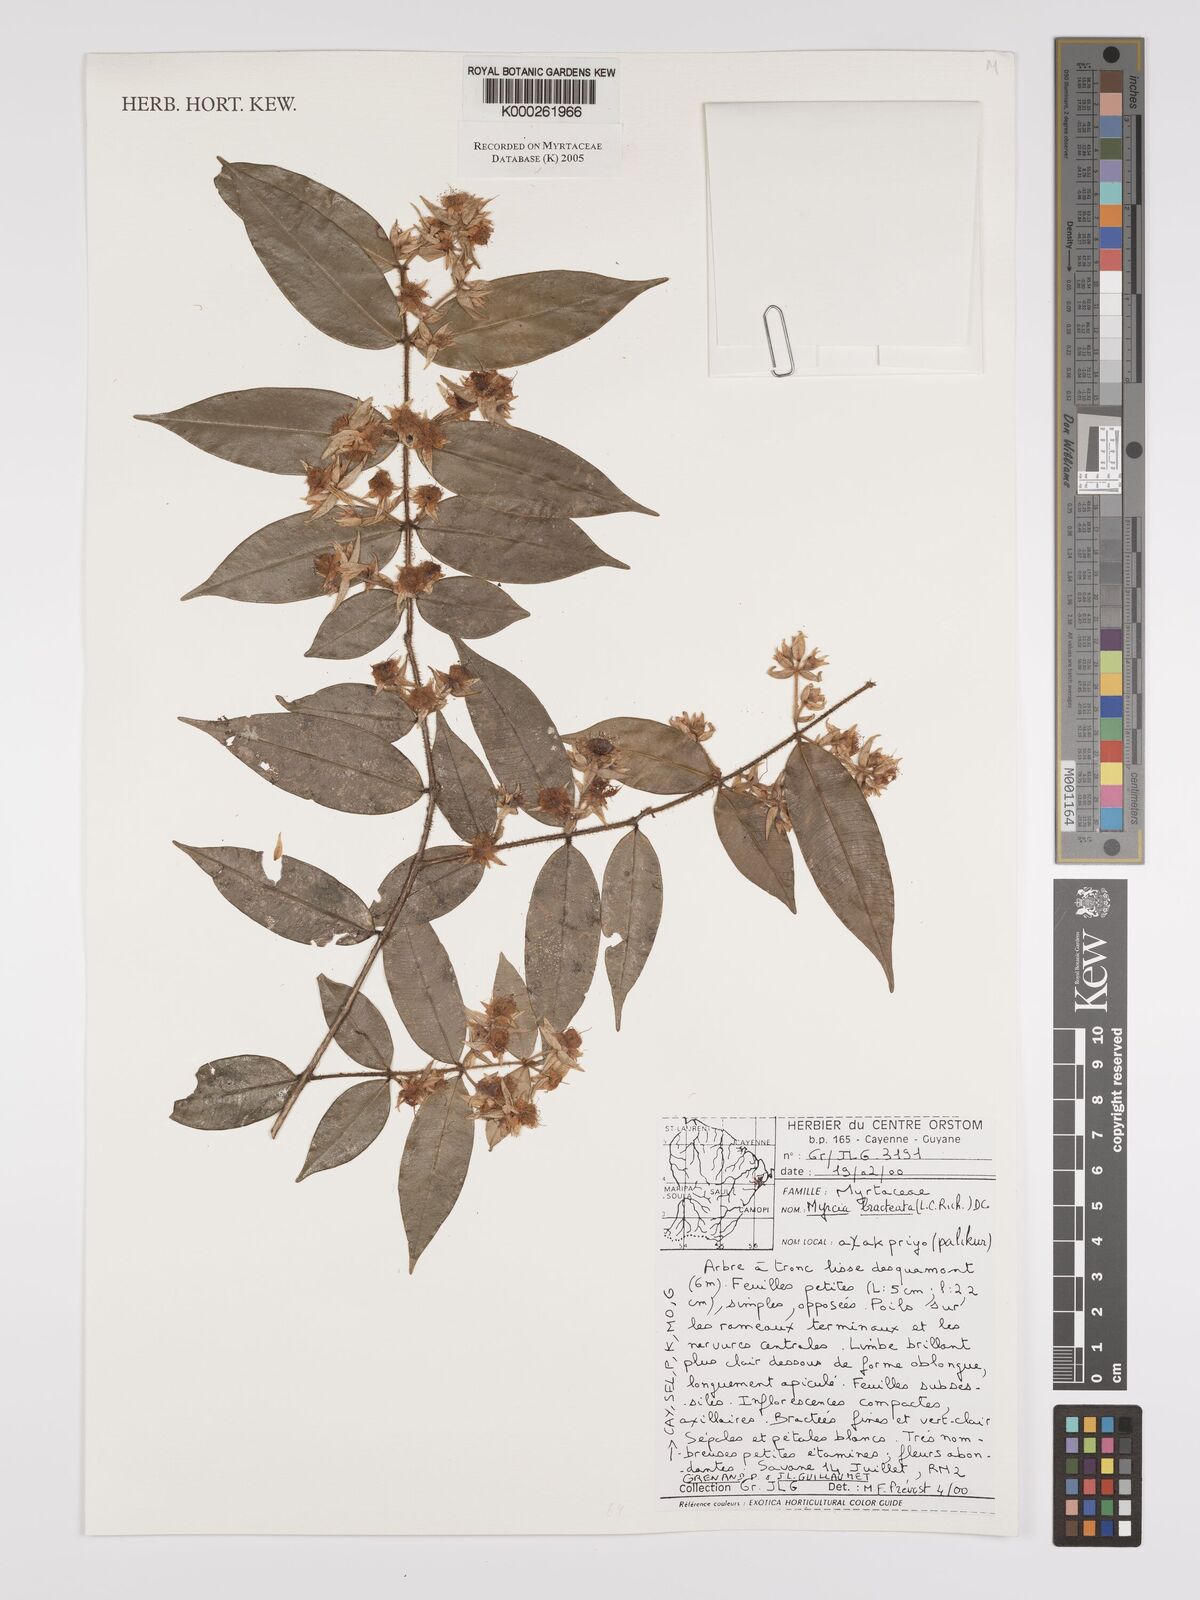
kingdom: Plantae
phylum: Tracheophyta
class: Magnoliopsida
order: Myrtales
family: Myrtaceae
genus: Myrcia
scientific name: Myrcia bracteata
